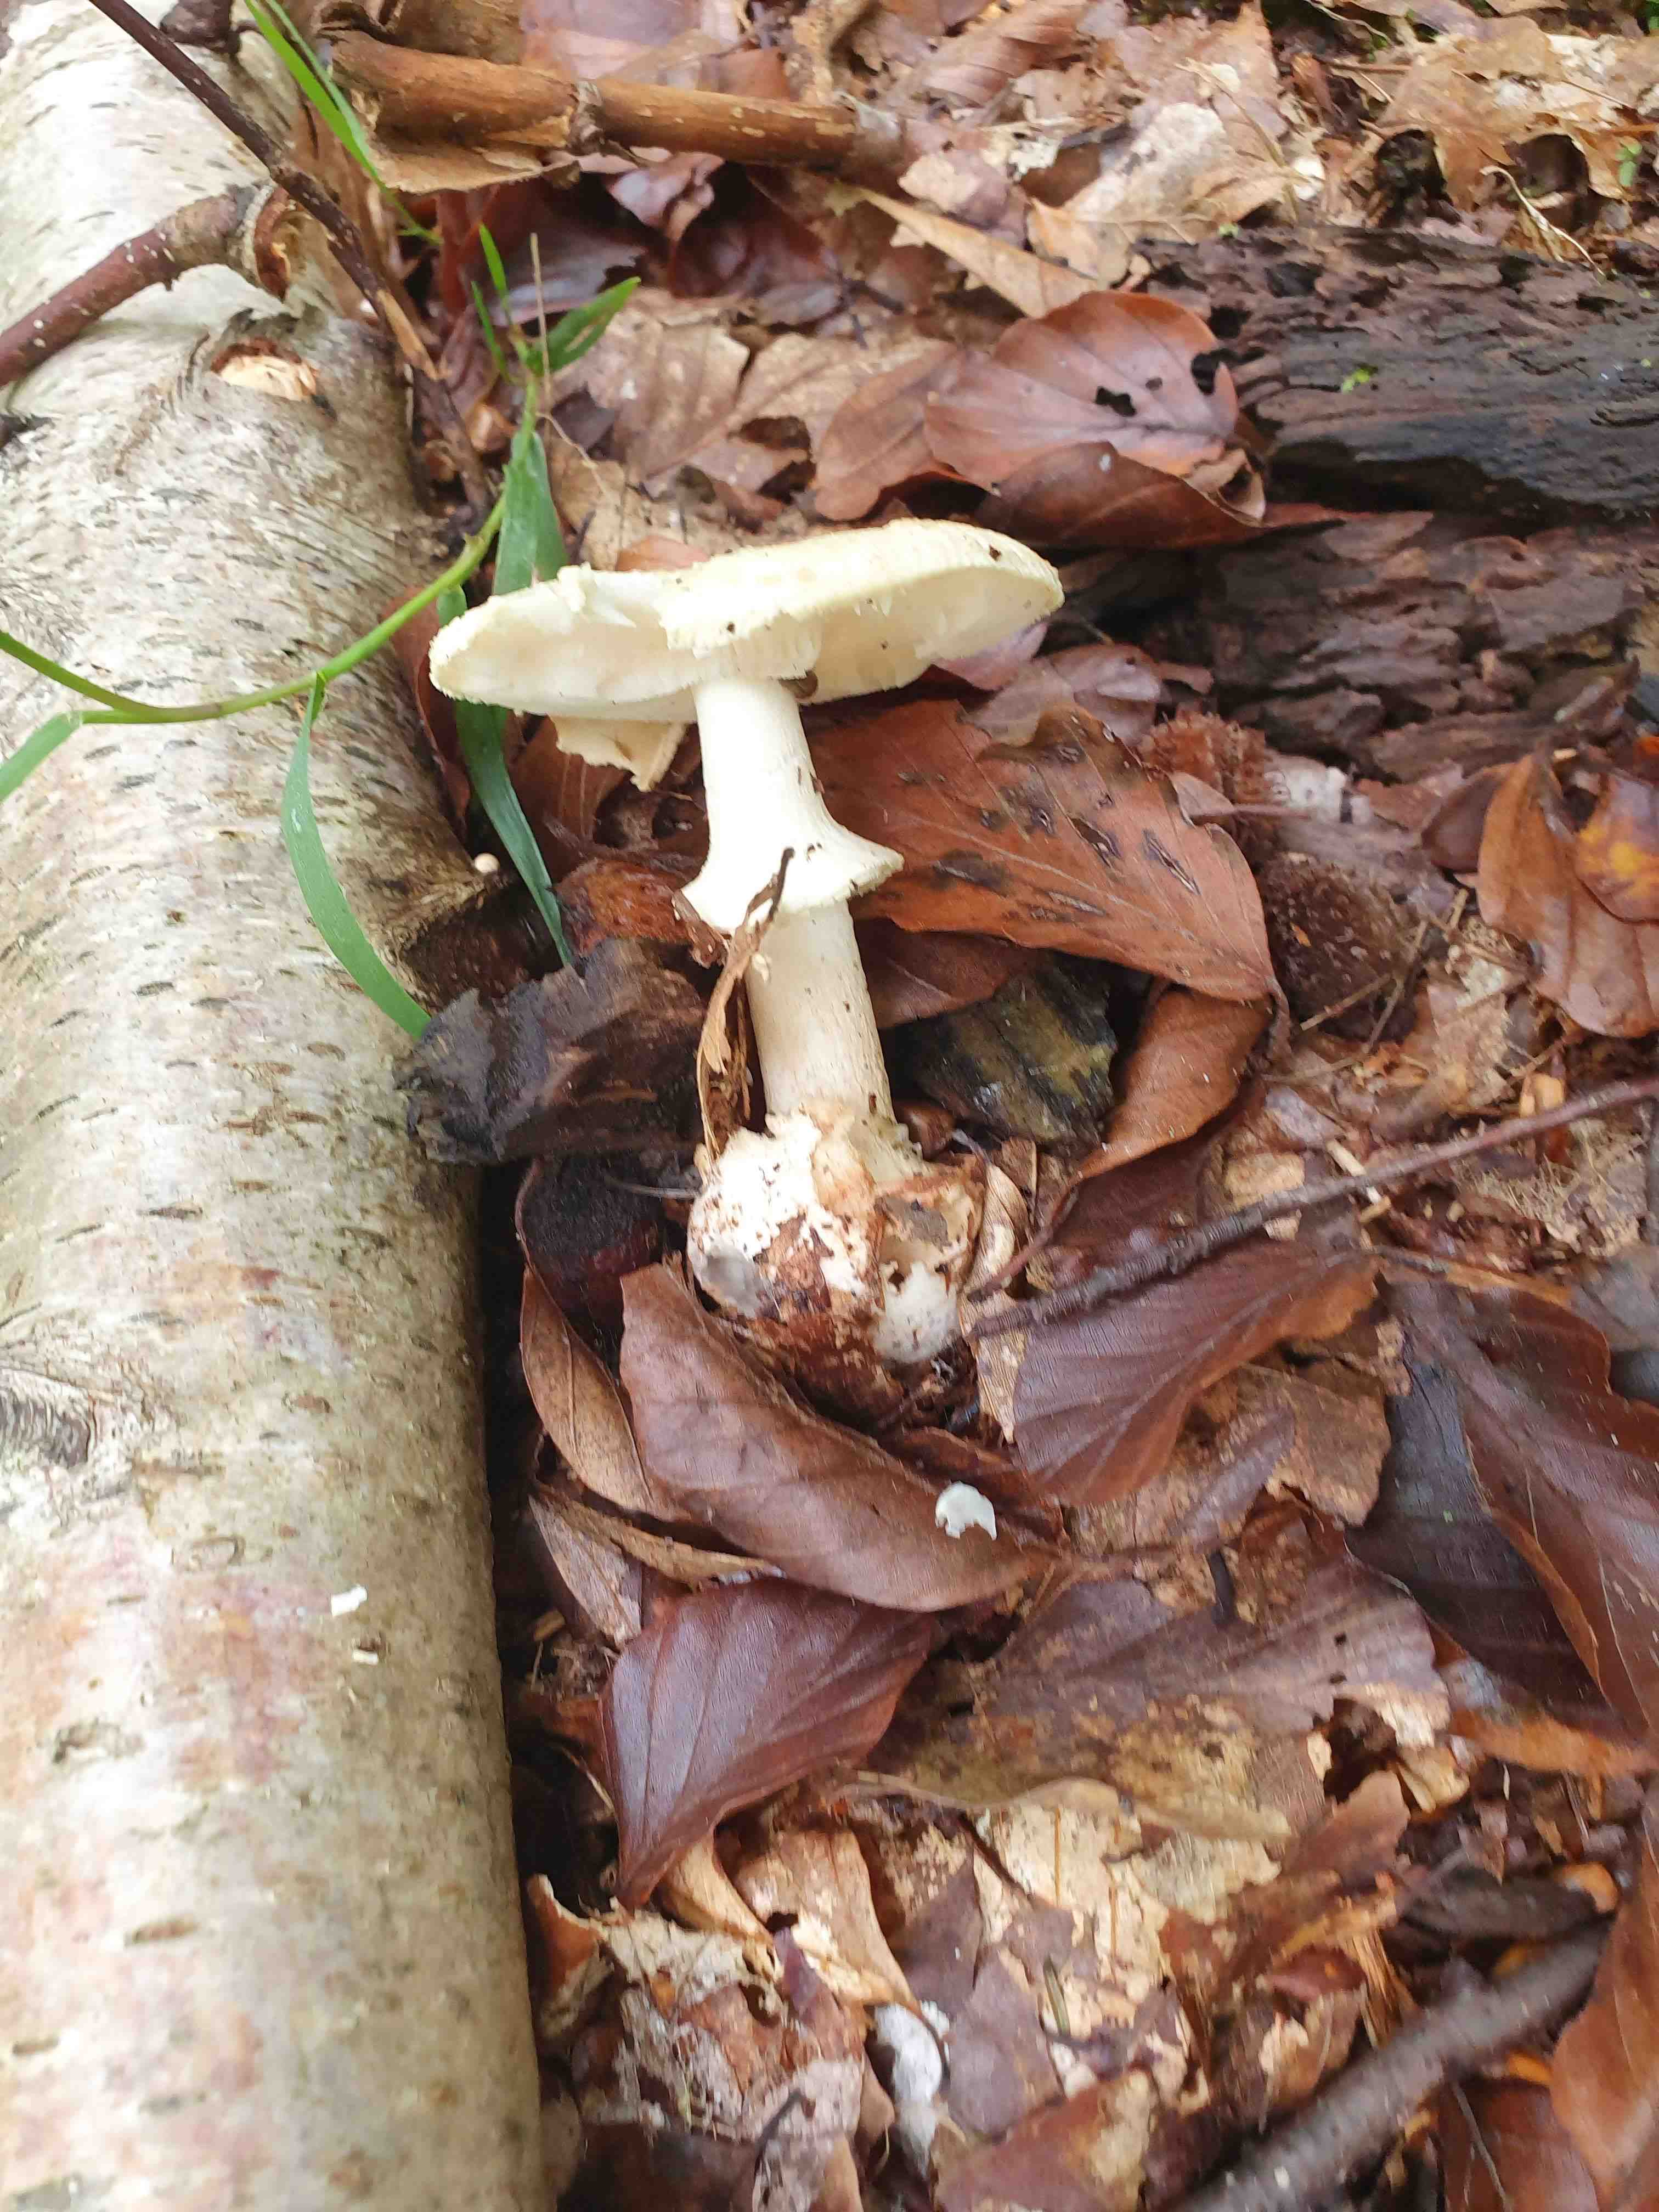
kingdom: Fungi
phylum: Basidiomycota
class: Agaricomycetes
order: Agaricales
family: Amanitaceae
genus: Amanita
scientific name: Amanita citrina
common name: kugleknoldet fluesvamp
